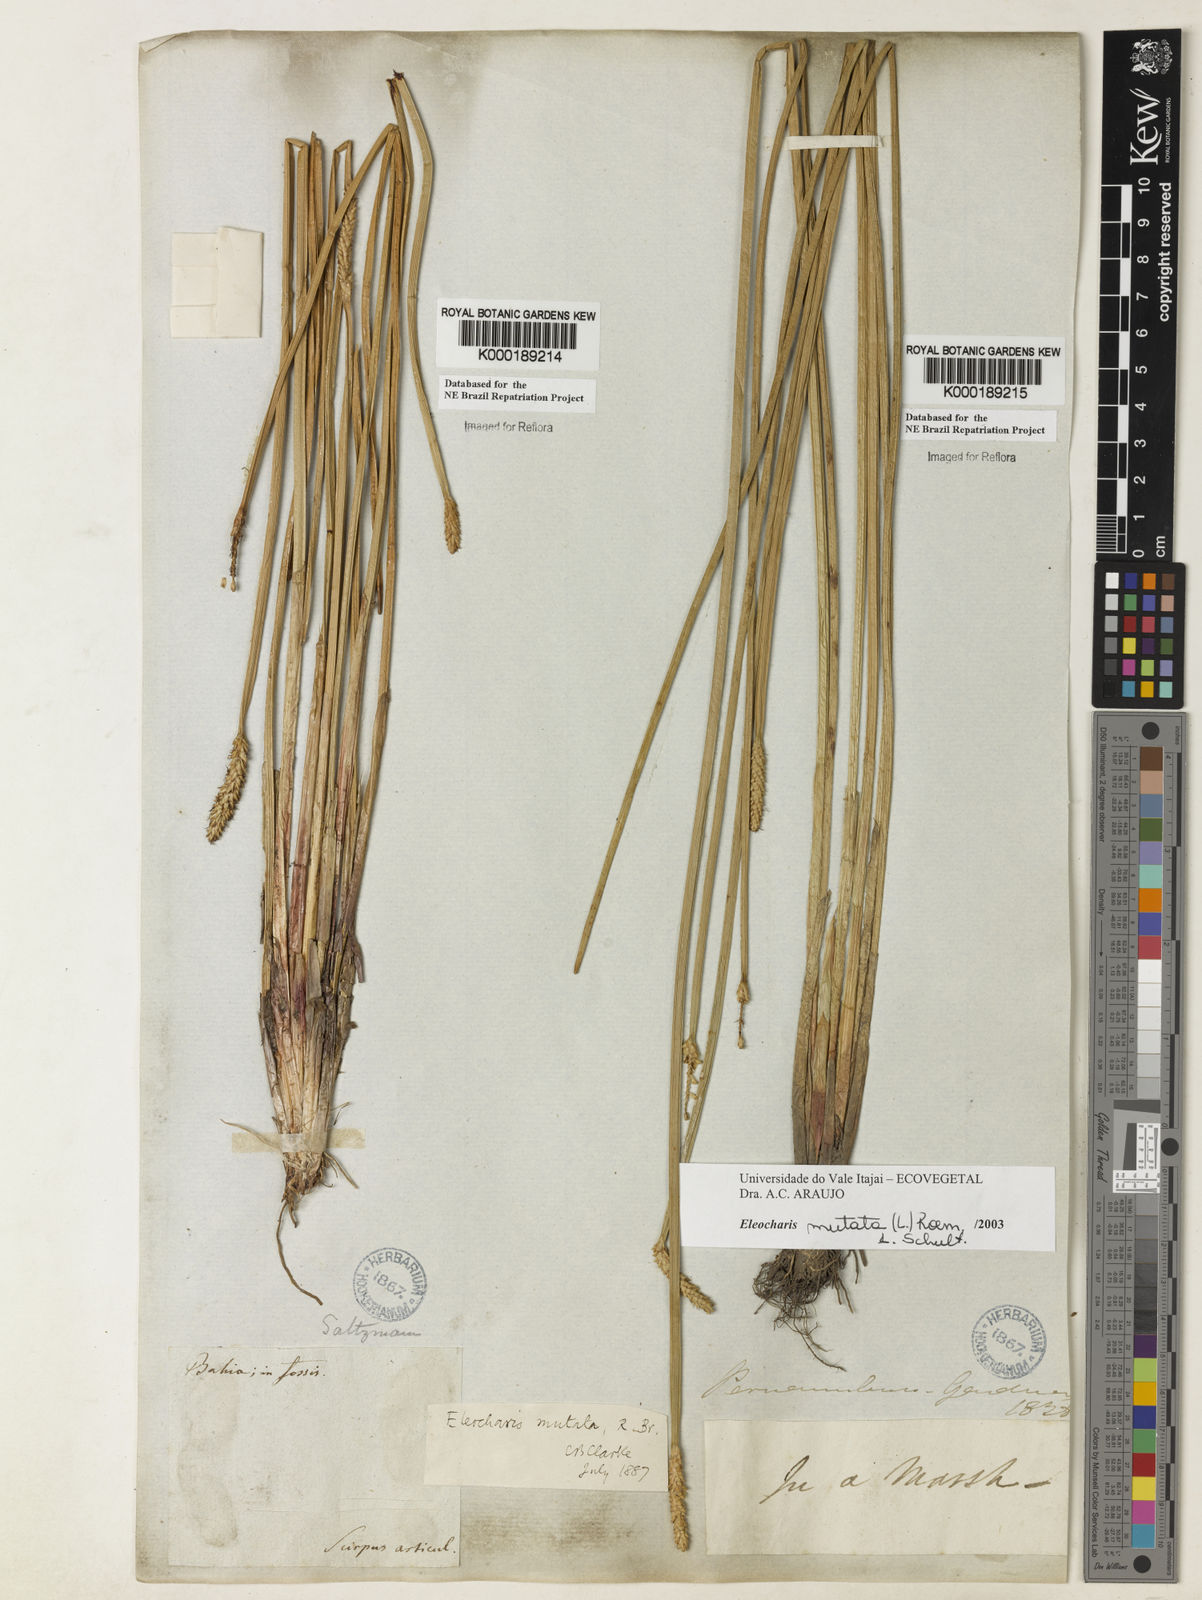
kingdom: Plantae
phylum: Tracheophyta
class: Liliopsida
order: Poales
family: Cyperaceae
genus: Eleocharis
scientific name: Eleocharis mutata
